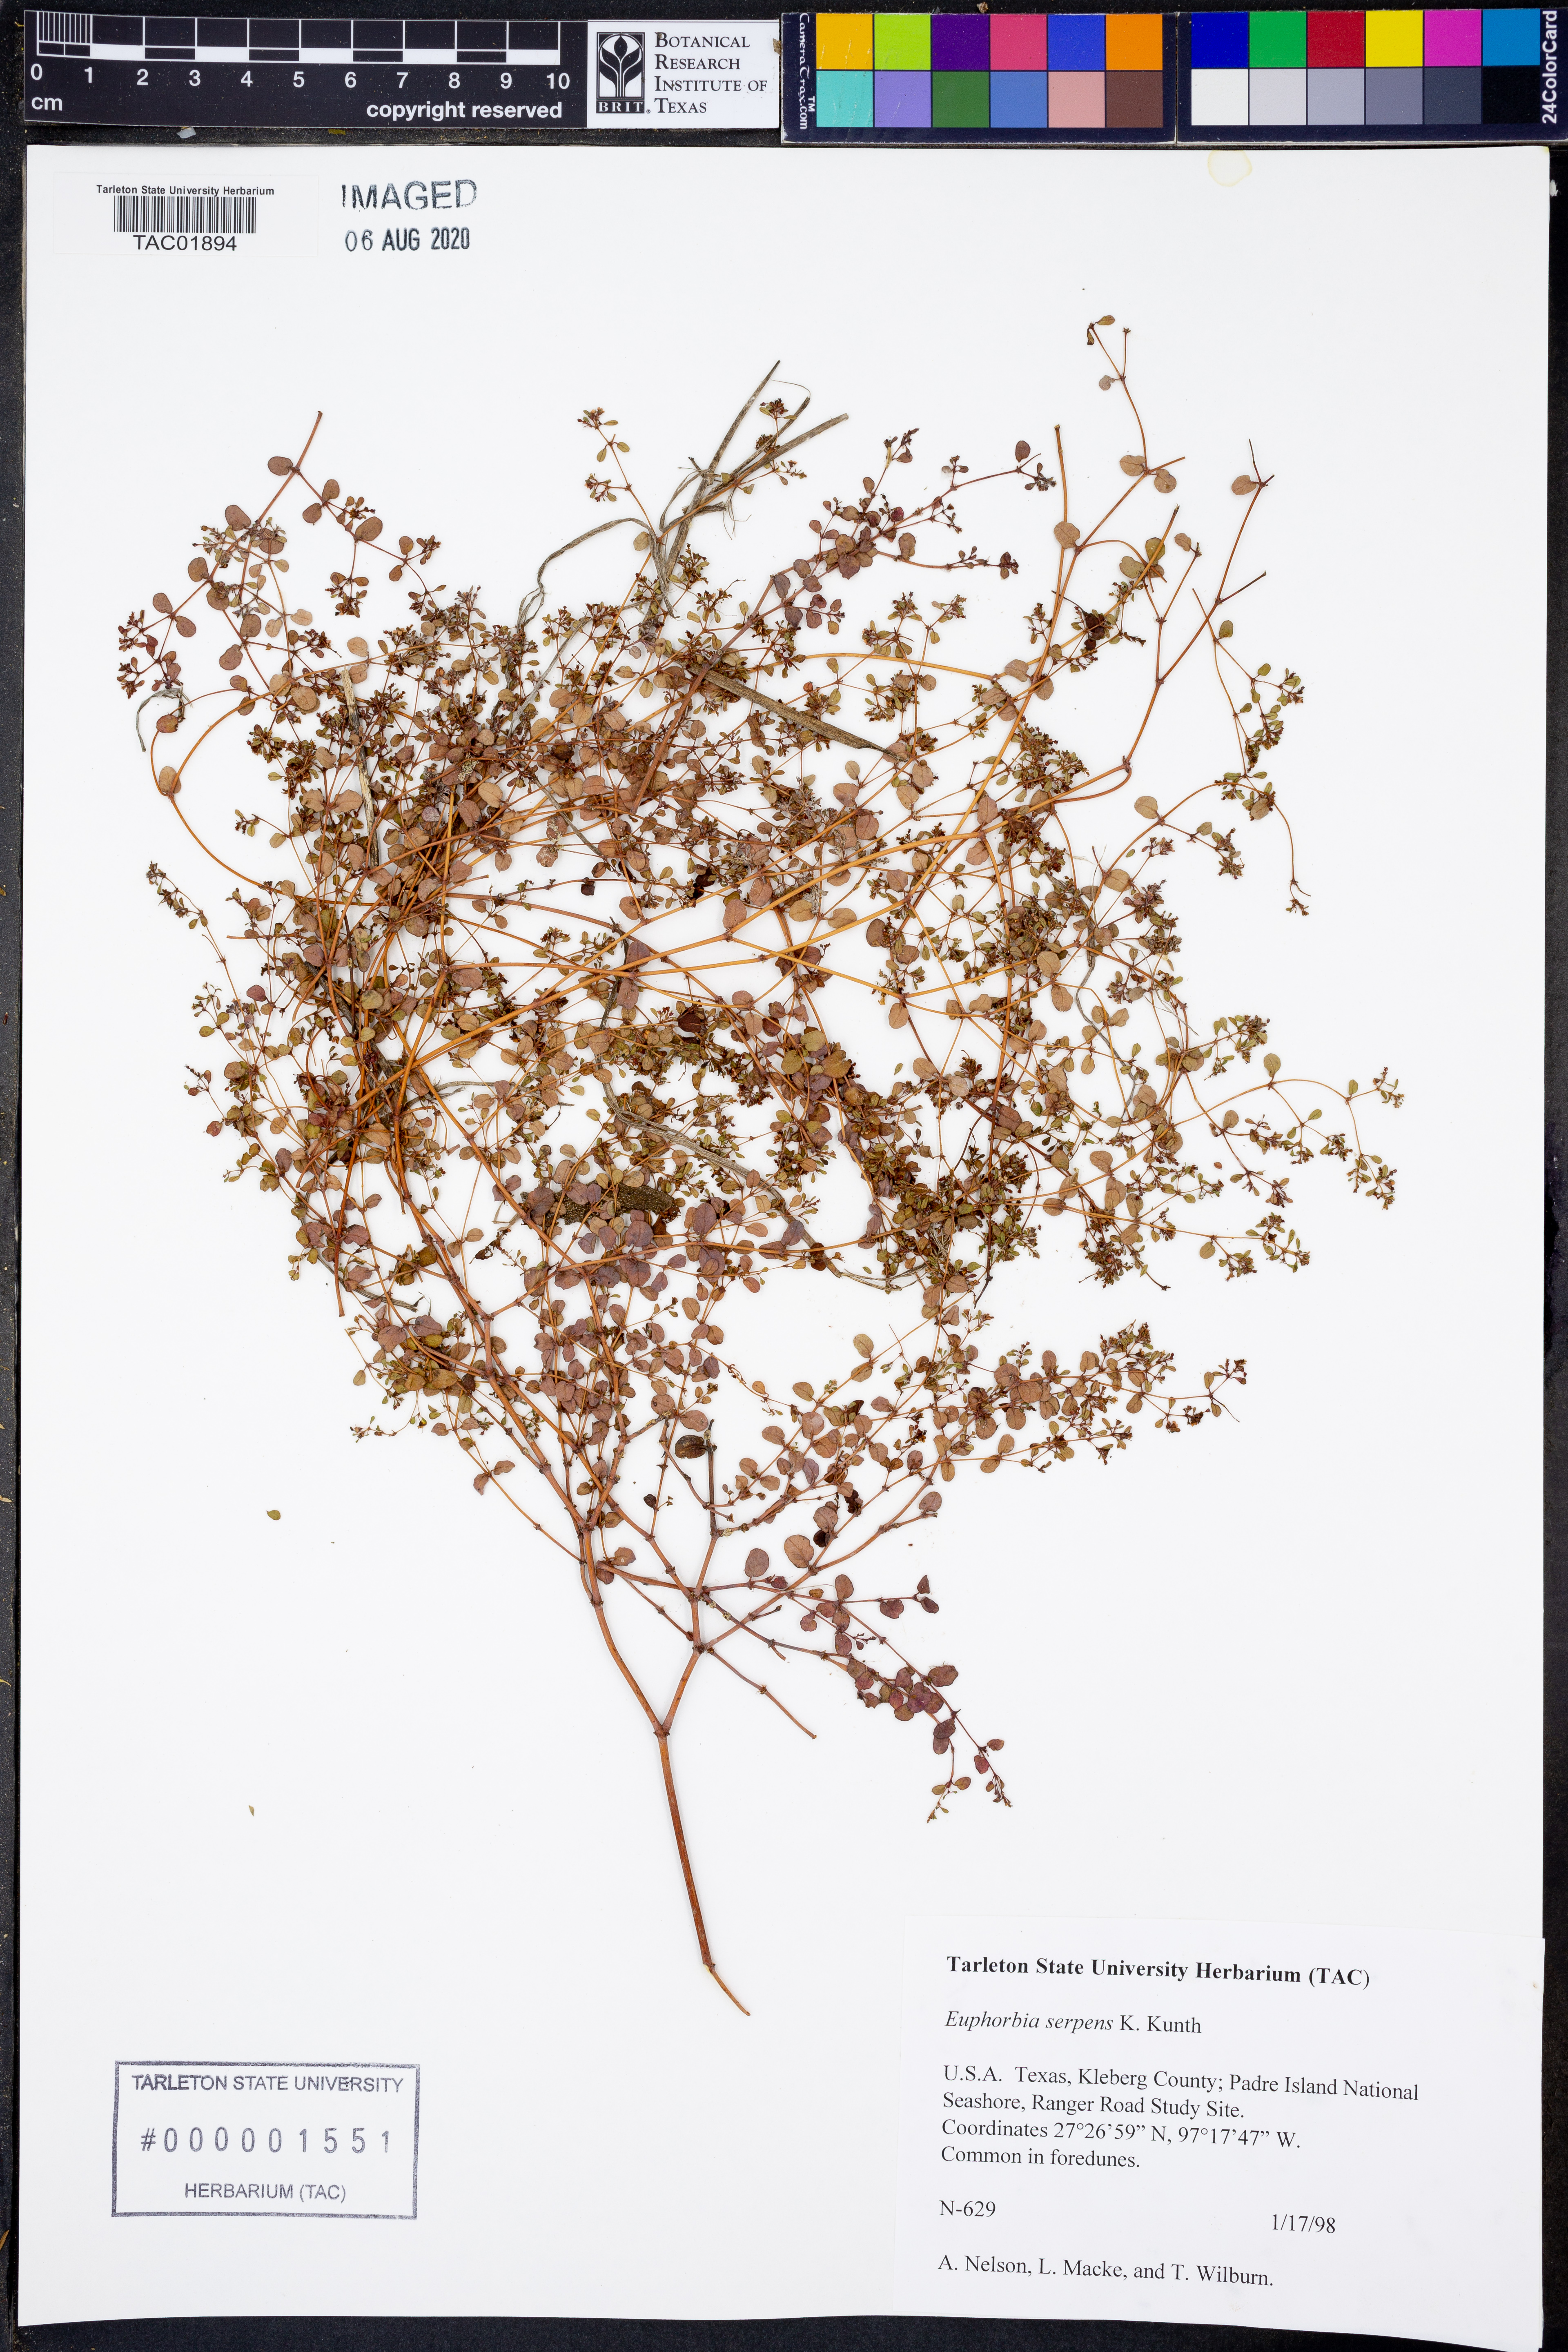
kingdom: Plantae
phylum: Tracheophyta
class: Magnoliopsida
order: Malpighiales
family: Euphorbiaceae
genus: Euphorbia
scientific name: Euphorbia serpens
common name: Matted sandmat
